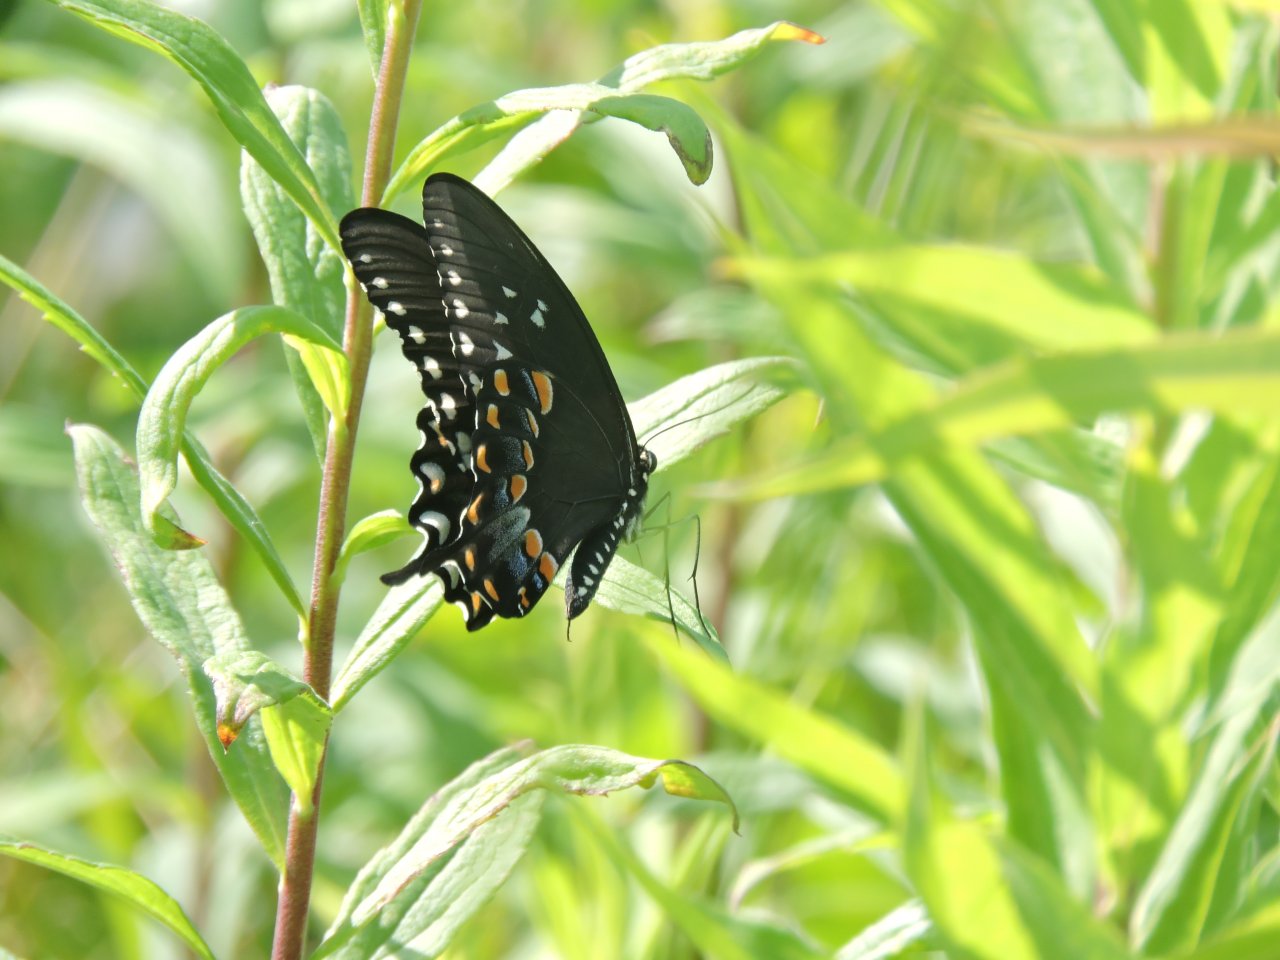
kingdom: Animalia
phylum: Arthropoda
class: Insecta
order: Lepidoptera
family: Papilionidae
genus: Pterourus
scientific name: Pterourus troilus
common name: Spicebush Swallowtail
